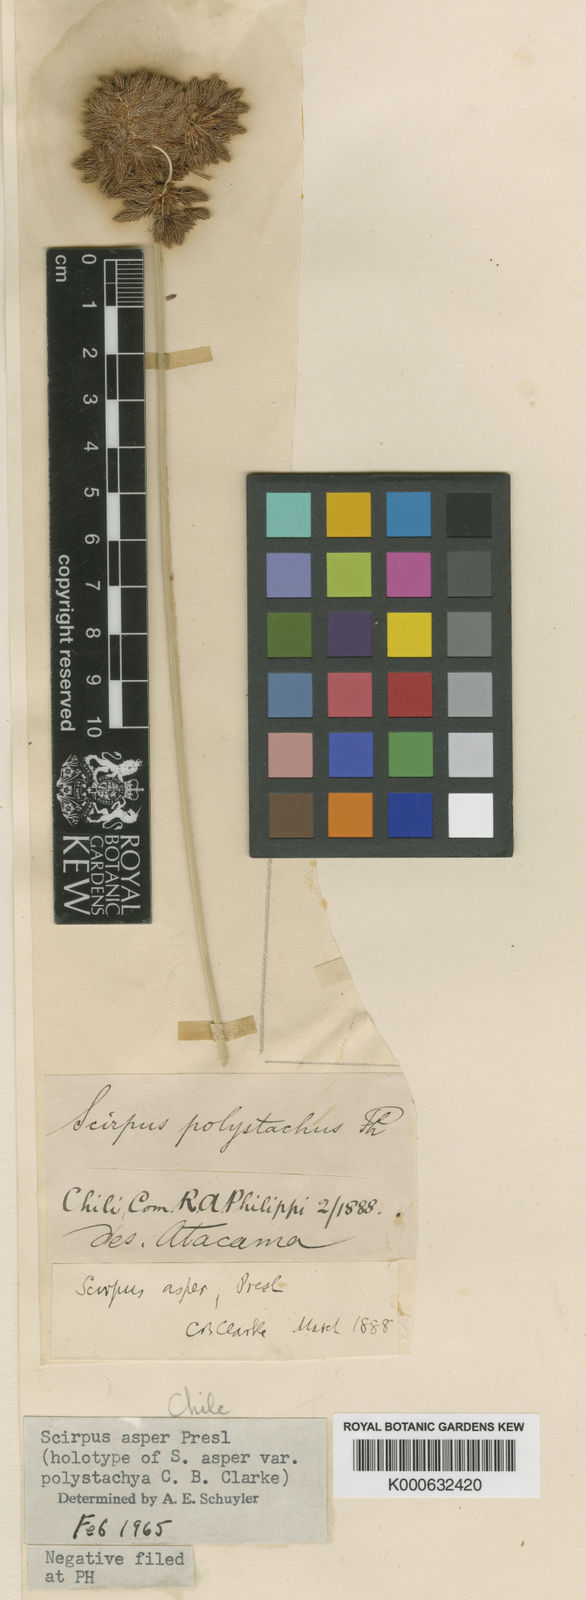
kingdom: Plantae
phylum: Tracheophyta
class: Liliopsida
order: Poales
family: Cyperaceae
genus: Rhodoscirpus
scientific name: Rhodoscirpus asper
